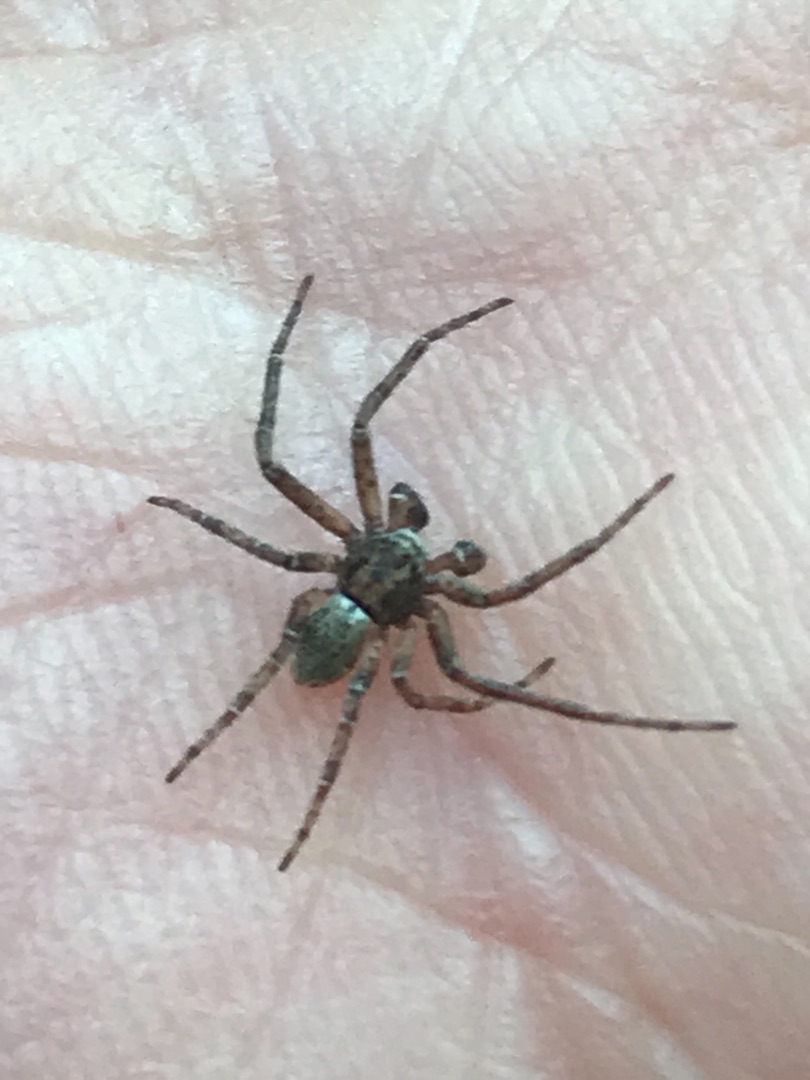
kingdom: Animalia
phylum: Arthropoda
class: Arachnida
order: Araneae
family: Philodromidae
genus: Philodromus
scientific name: Philodromus
